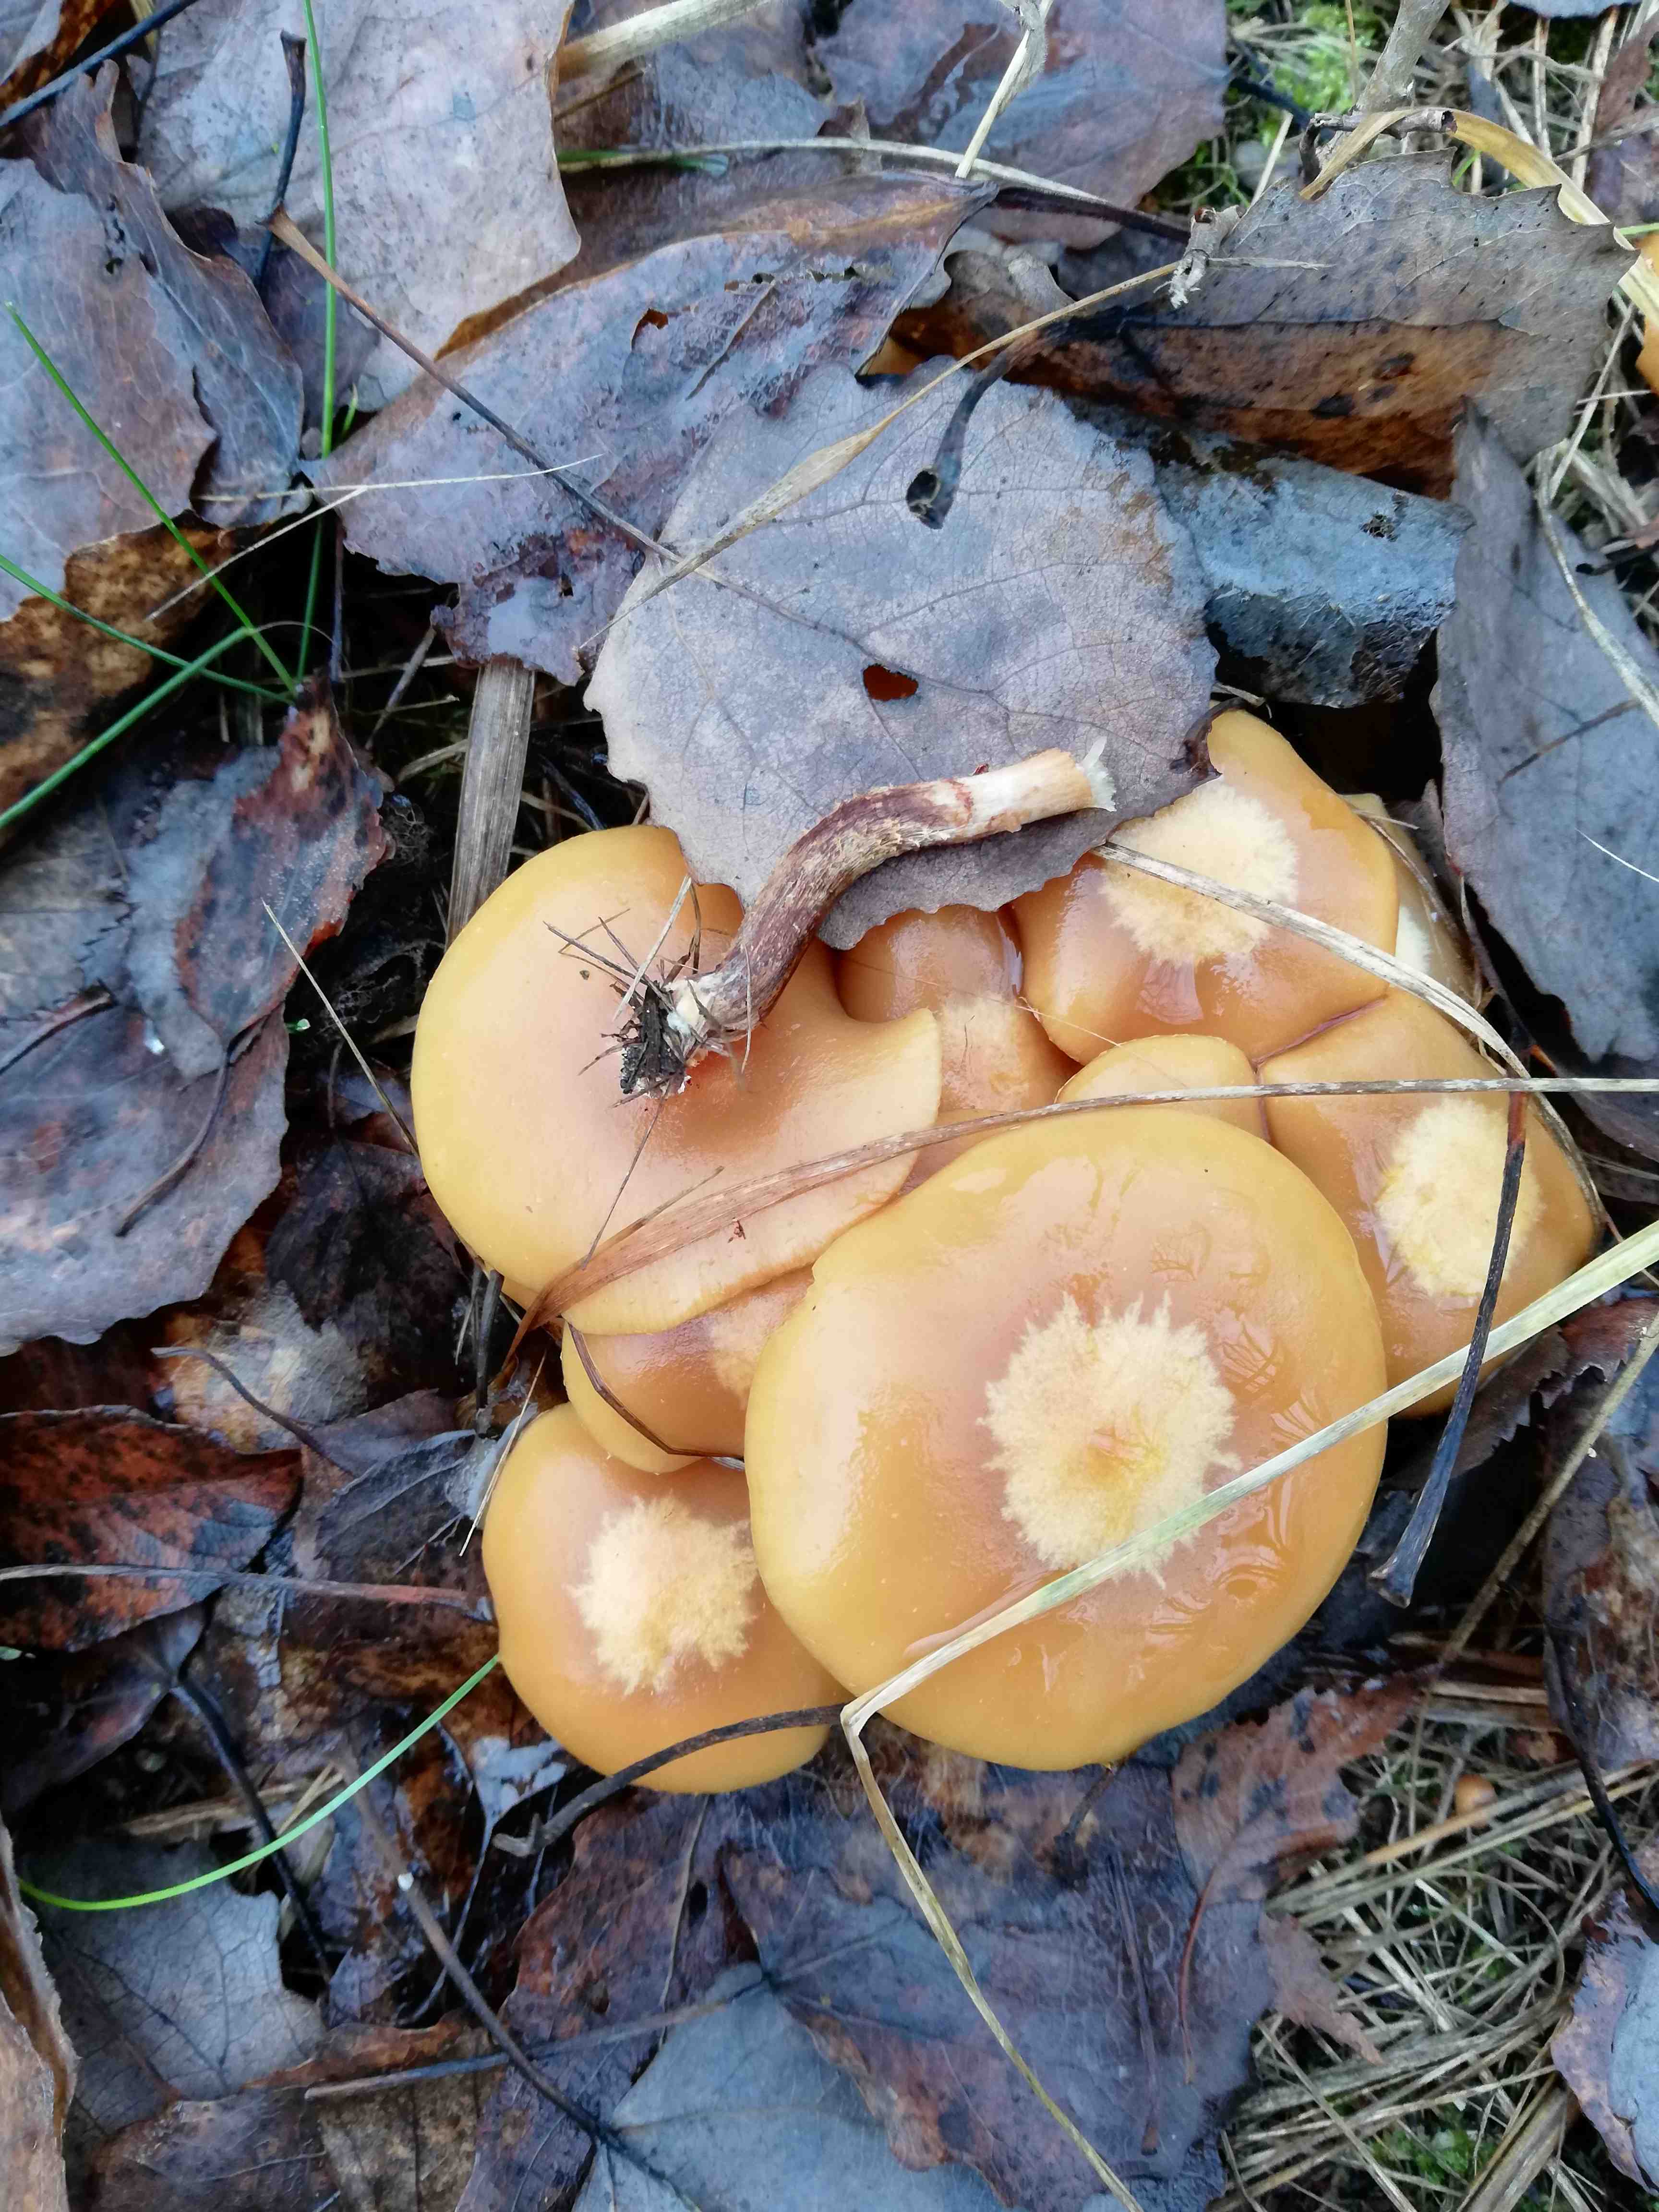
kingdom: Fungi
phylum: Basidiomycota
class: Agaricomycetes
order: Agaricales
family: Strophariaceae
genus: Kuehneromyces
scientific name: Kuehneromyces mutabilis
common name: foranderlig skælhat
